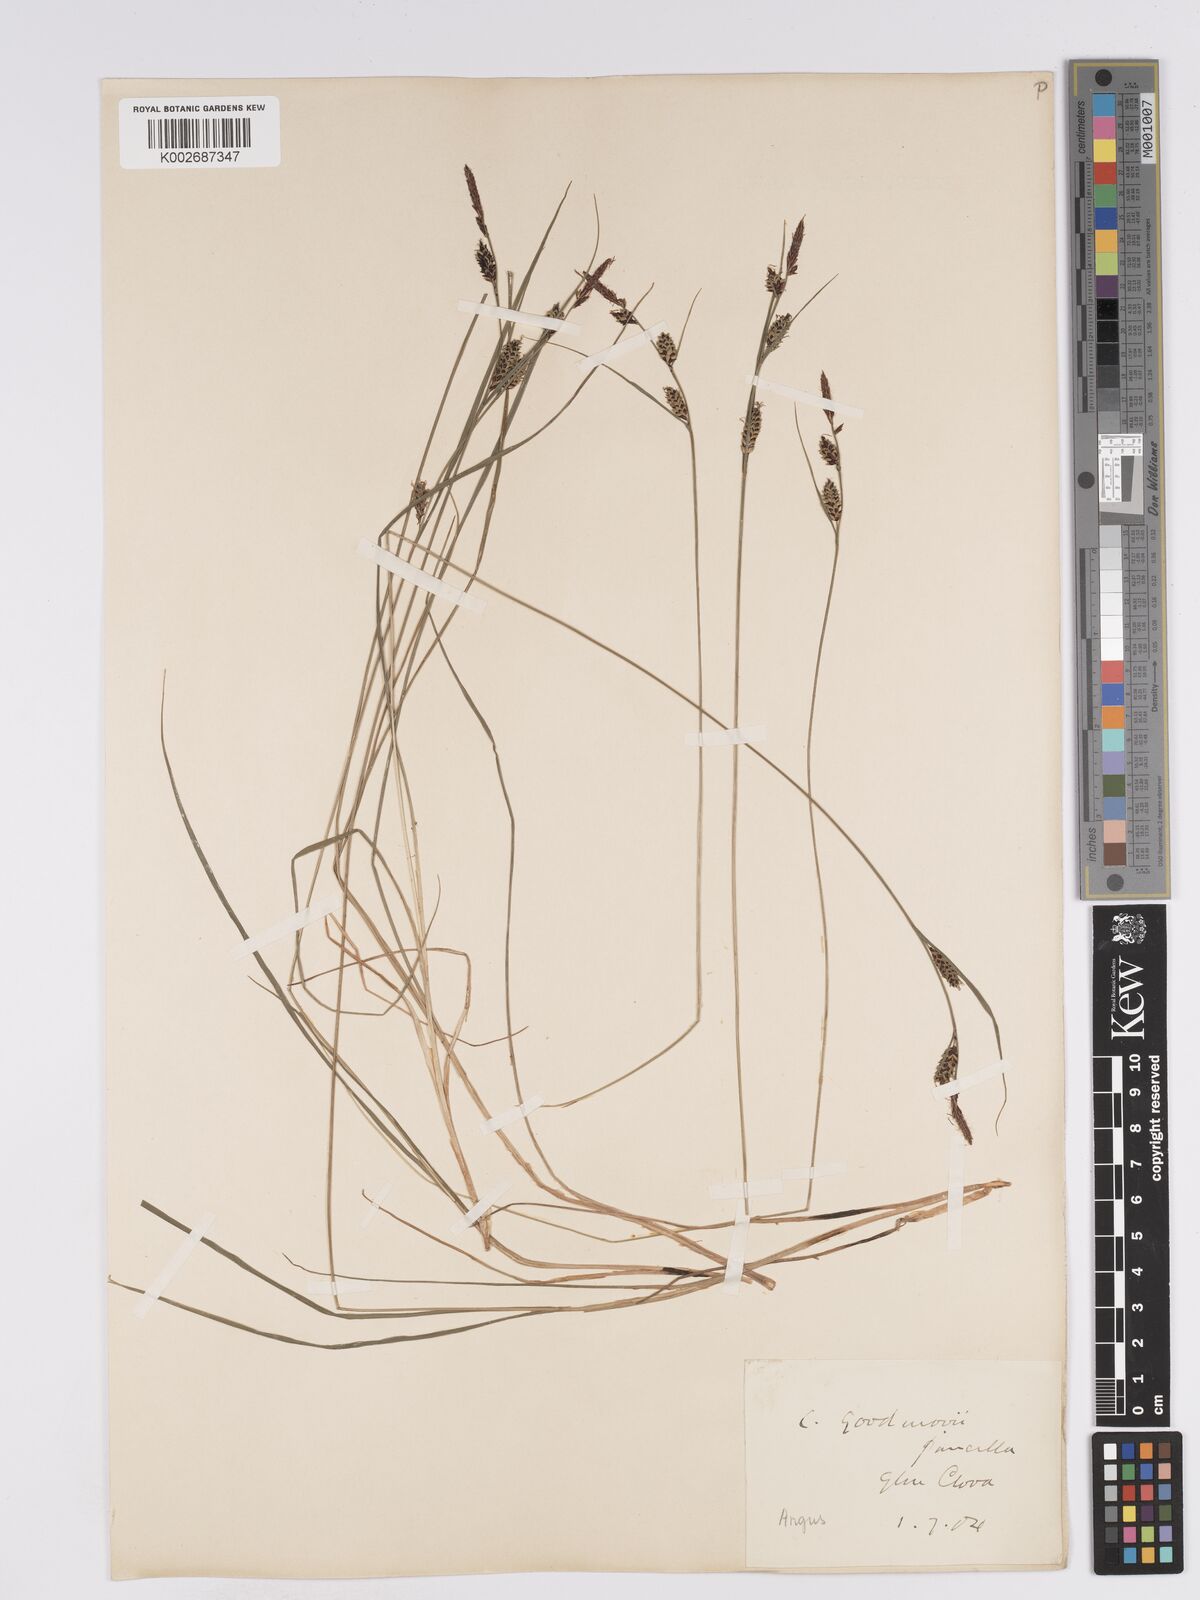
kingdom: Plantae
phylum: Tracheophyta
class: Liliopsida
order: Poales
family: Cyperaceae
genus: Carex
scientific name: Carex nigra
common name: Common sedge
